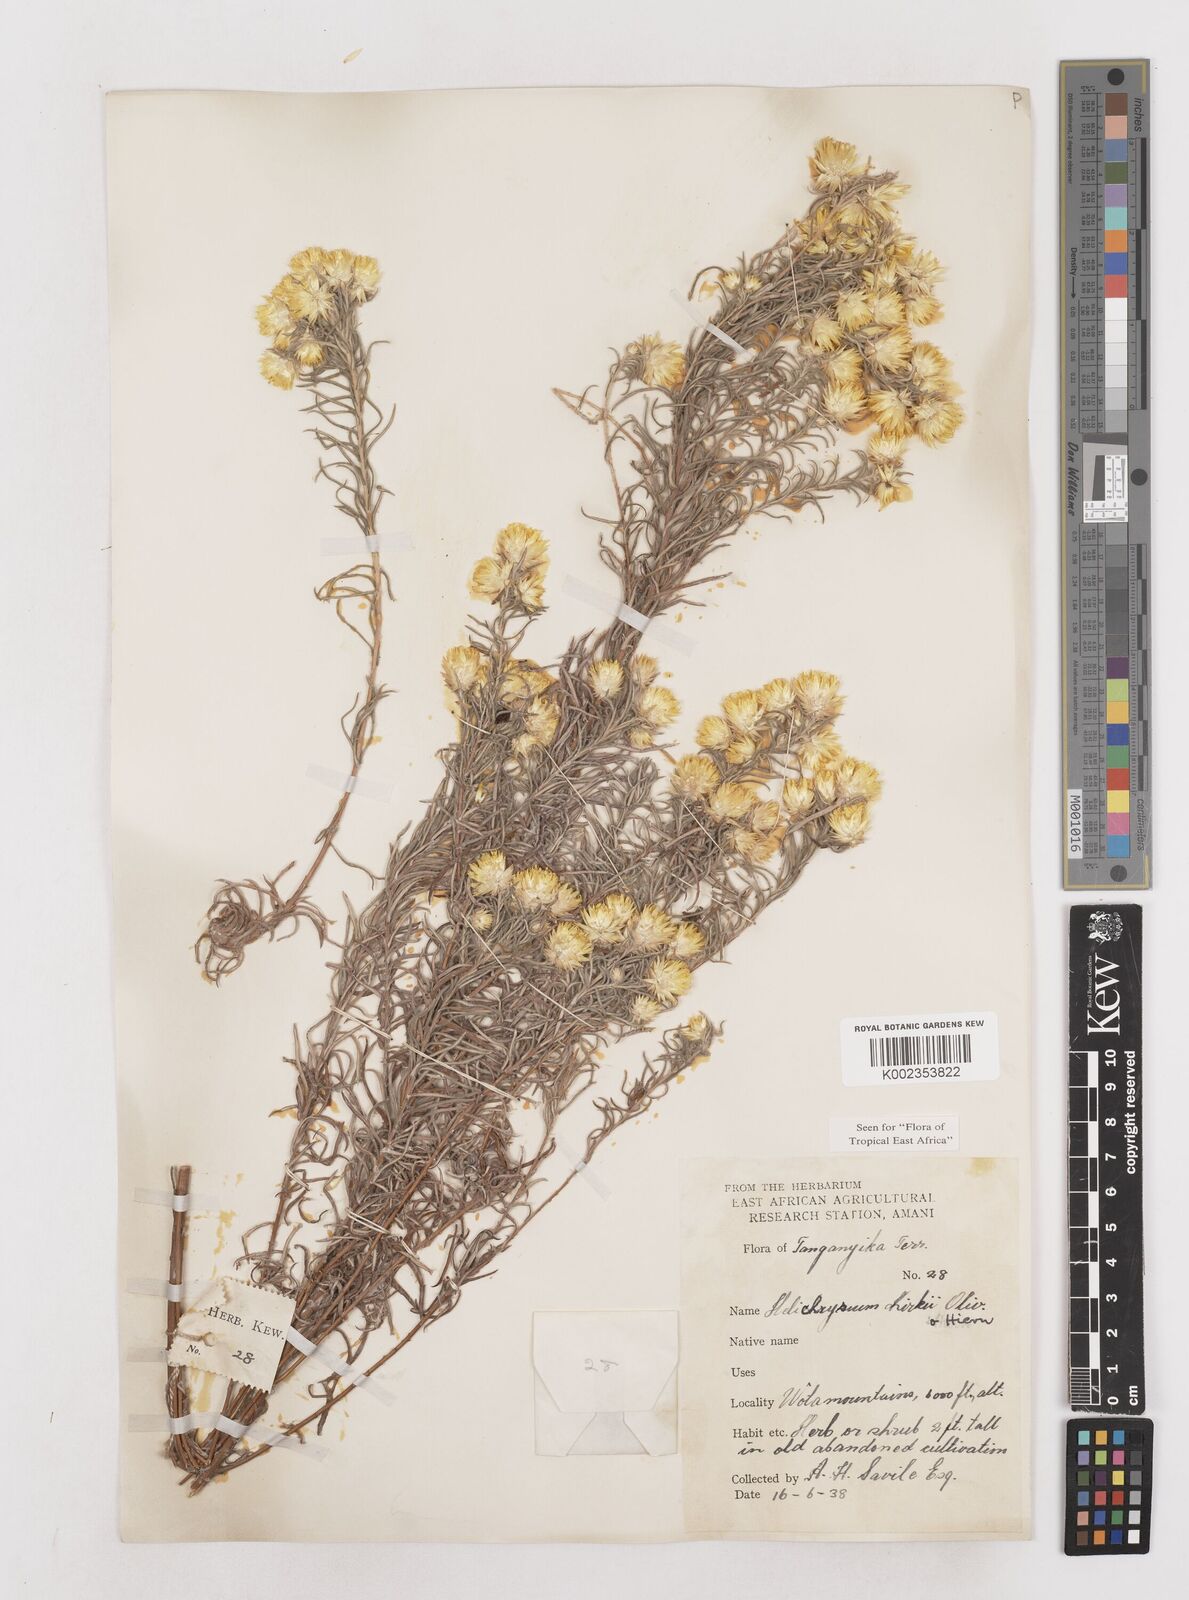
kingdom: Plantae
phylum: Tracheophyta
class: Magnoliopsida
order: Asterales
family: Asteraceae
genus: Helichrysum
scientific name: Helichrysum kirkii
